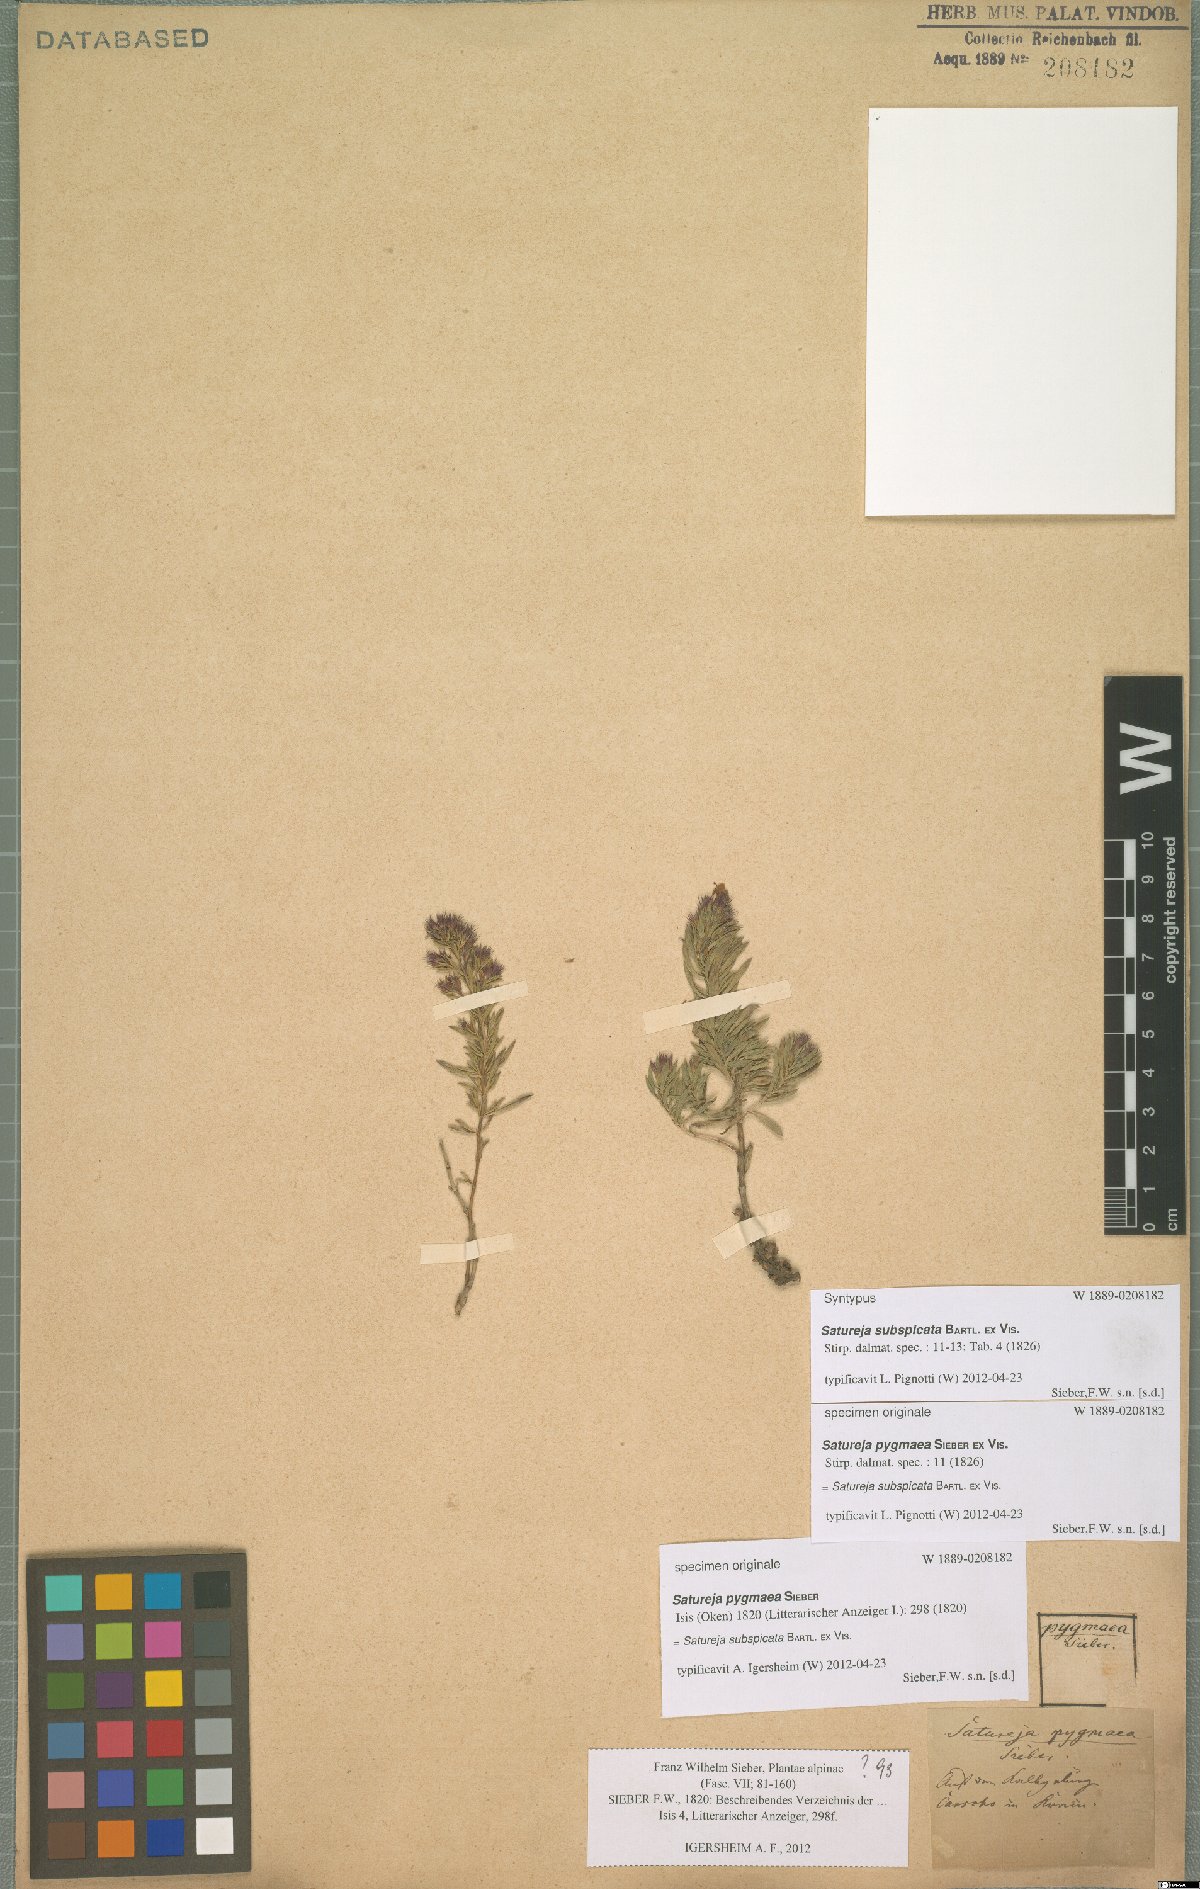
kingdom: Plantae
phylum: Tracheophyta
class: Magnoliopsida
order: Lamiales
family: Lamiaceae
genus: Satureja
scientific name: Satureja subspicata
